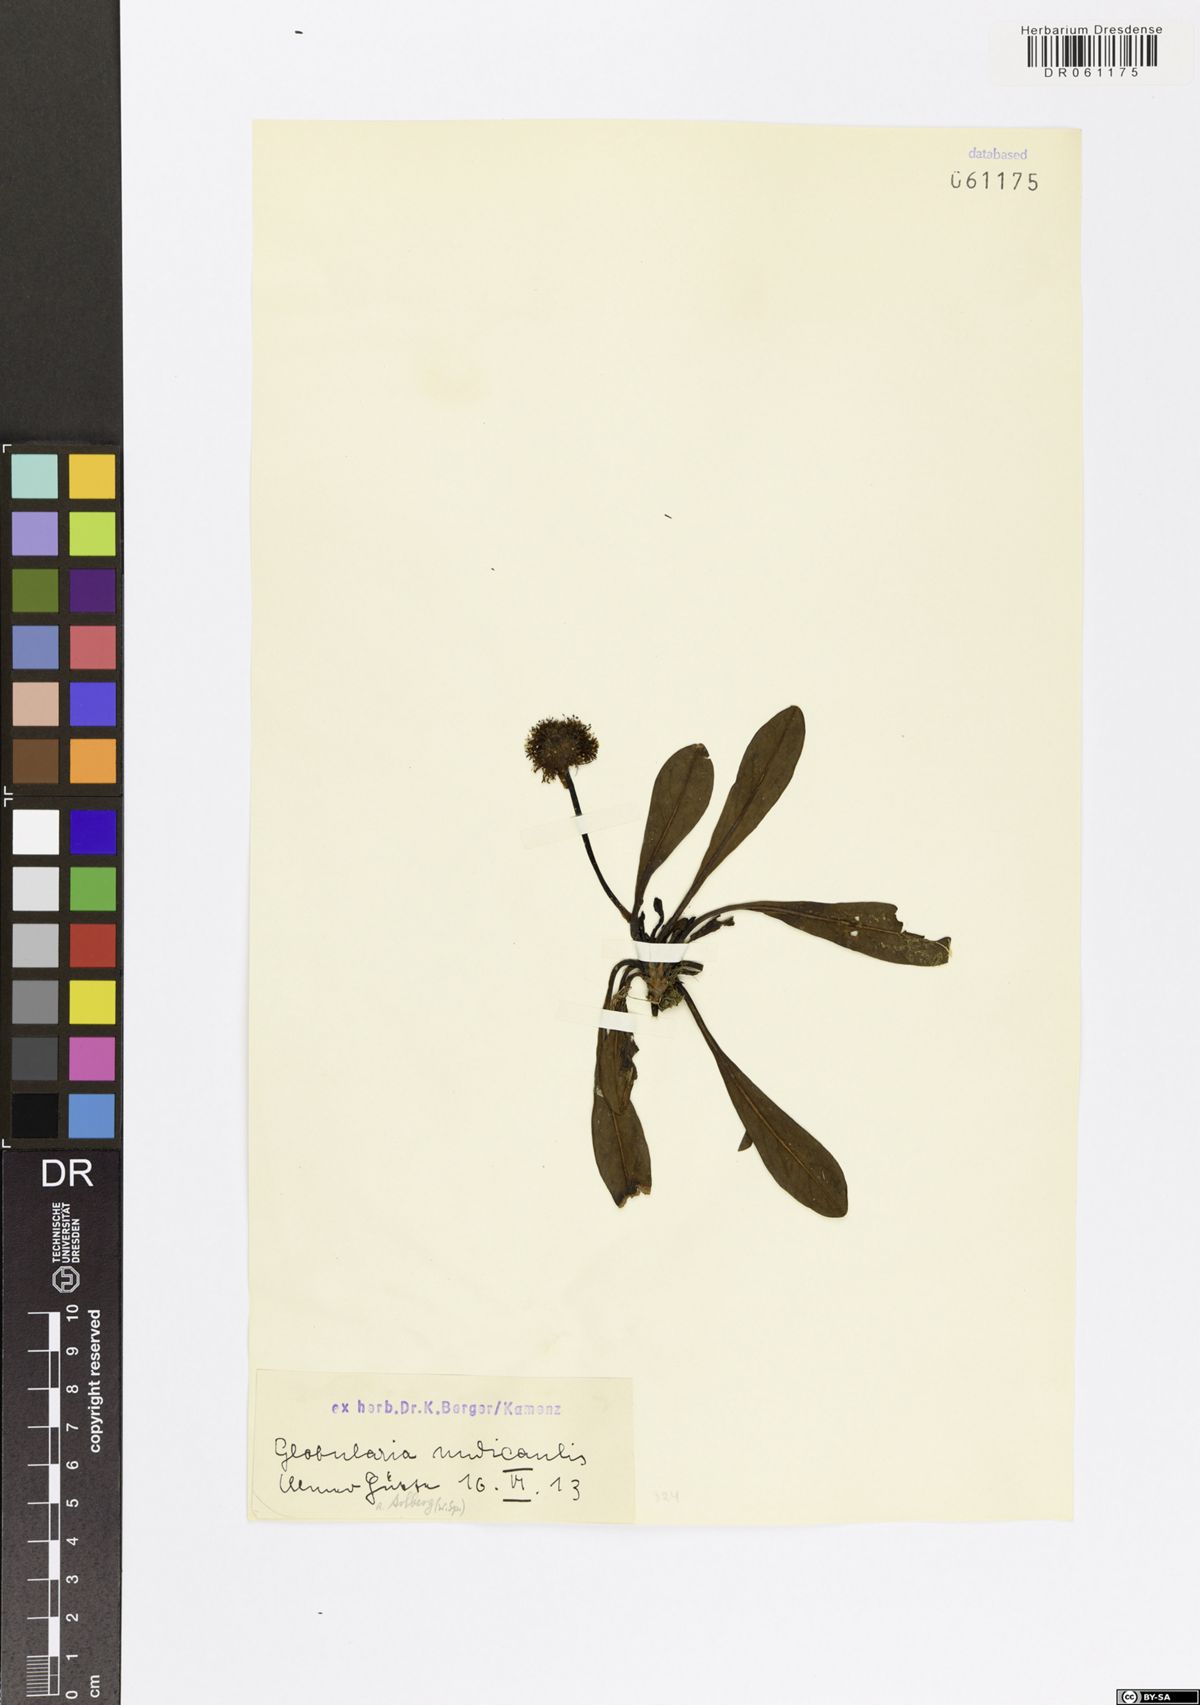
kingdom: Plantae
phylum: Tracheophyta
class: Magnoliopsida
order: Lamiales
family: Plantaginaceae
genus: Globularia
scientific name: Globularia nudicaulis
